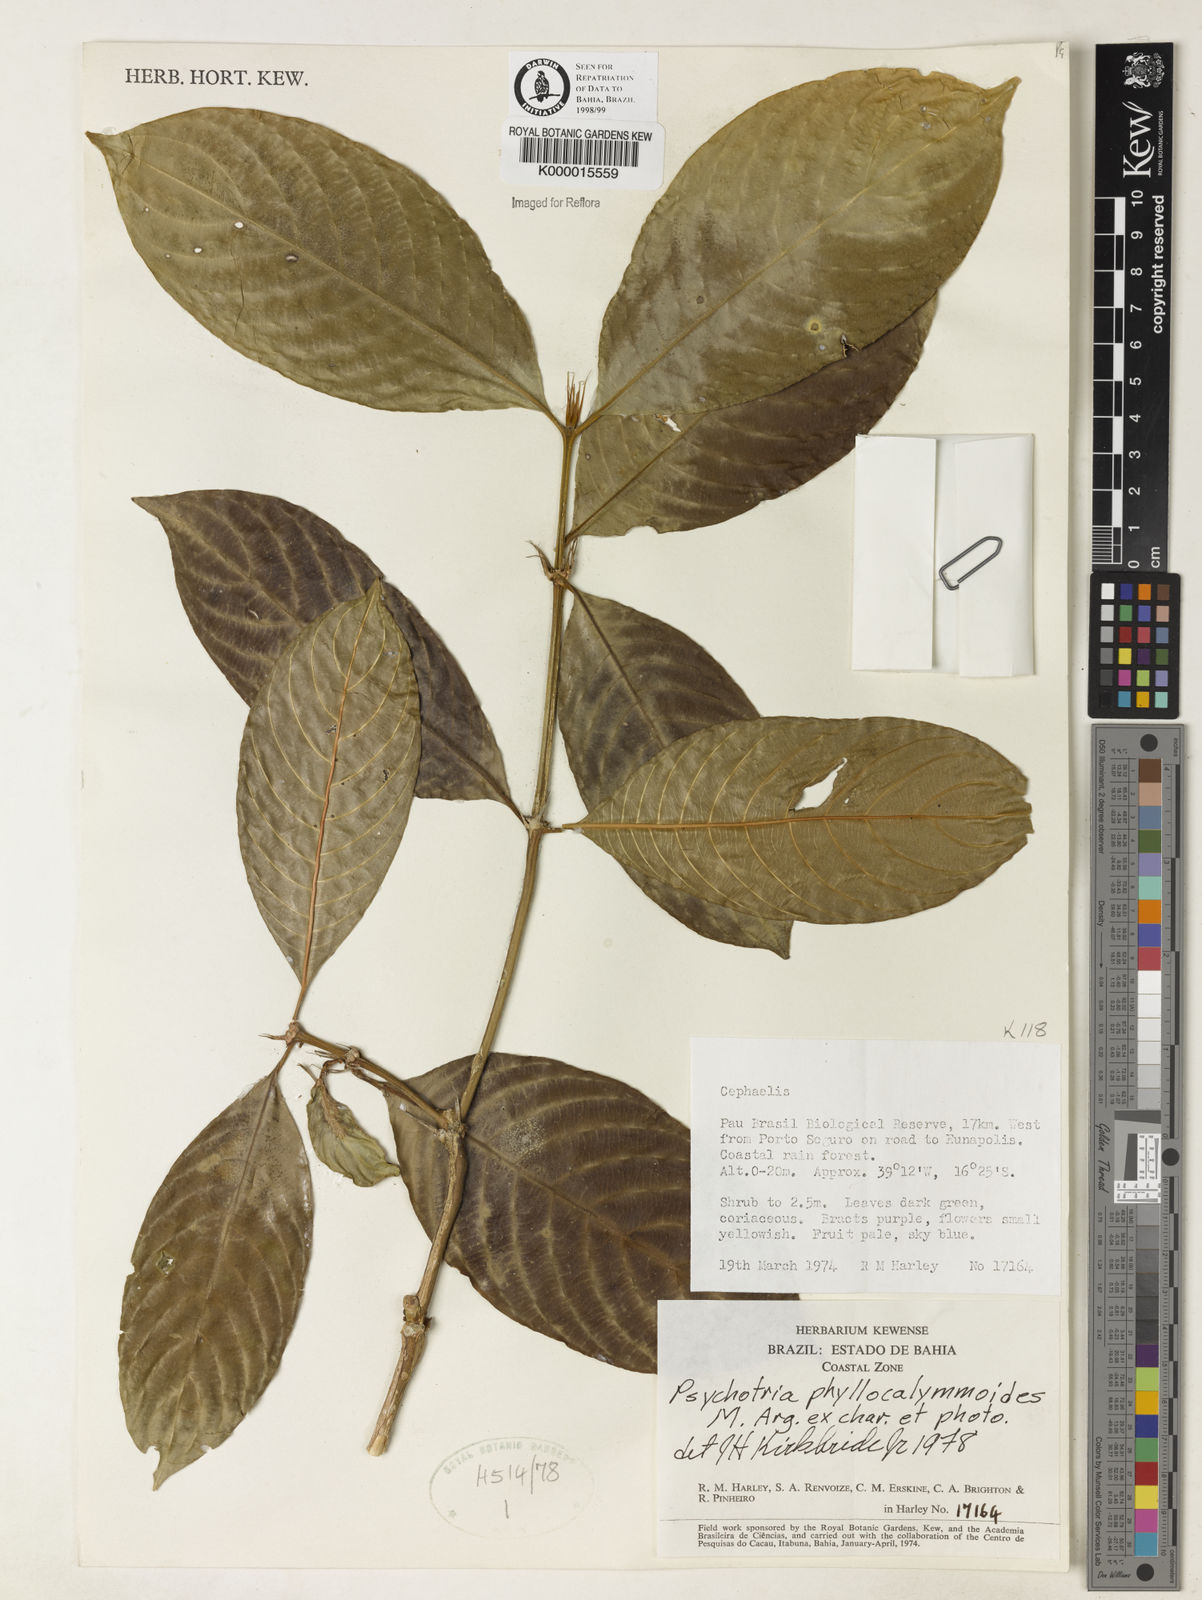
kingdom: Plantae
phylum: Tracheophyta
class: Magnoliopsida
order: Gentianales
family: Rubiaceae
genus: Psychotria
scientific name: Psychotria phyllocalymmoides
